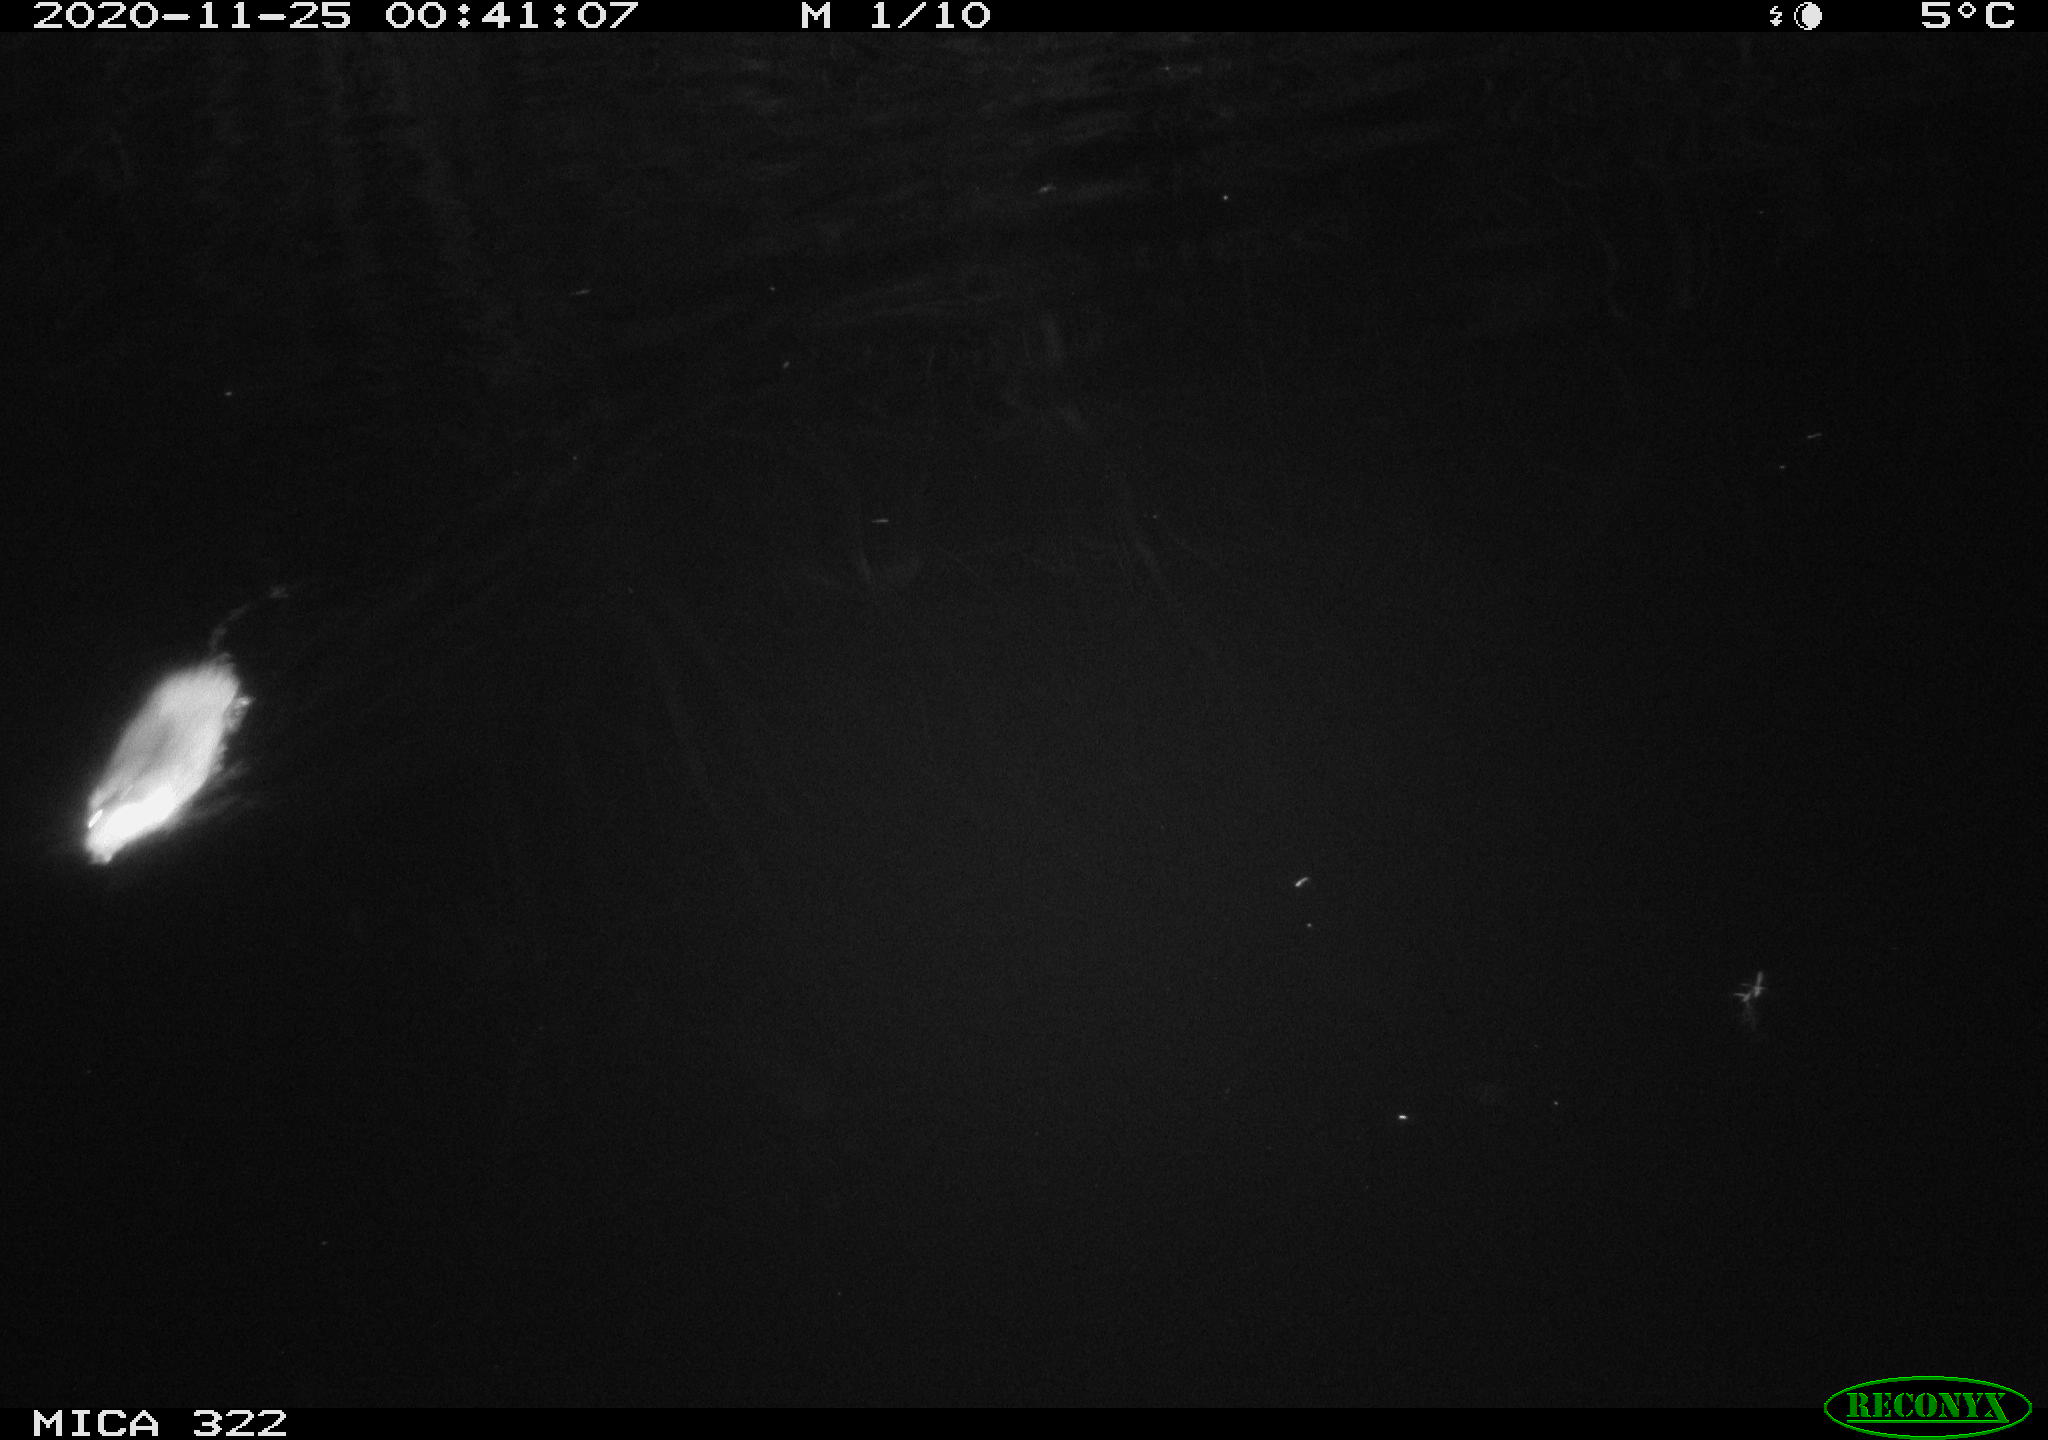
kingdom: Animalia
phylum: Chordata
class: Mammalia
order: Rodentia
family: Muridae
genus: Rattus
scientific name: Rattus norvegicus
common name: Brown rat
